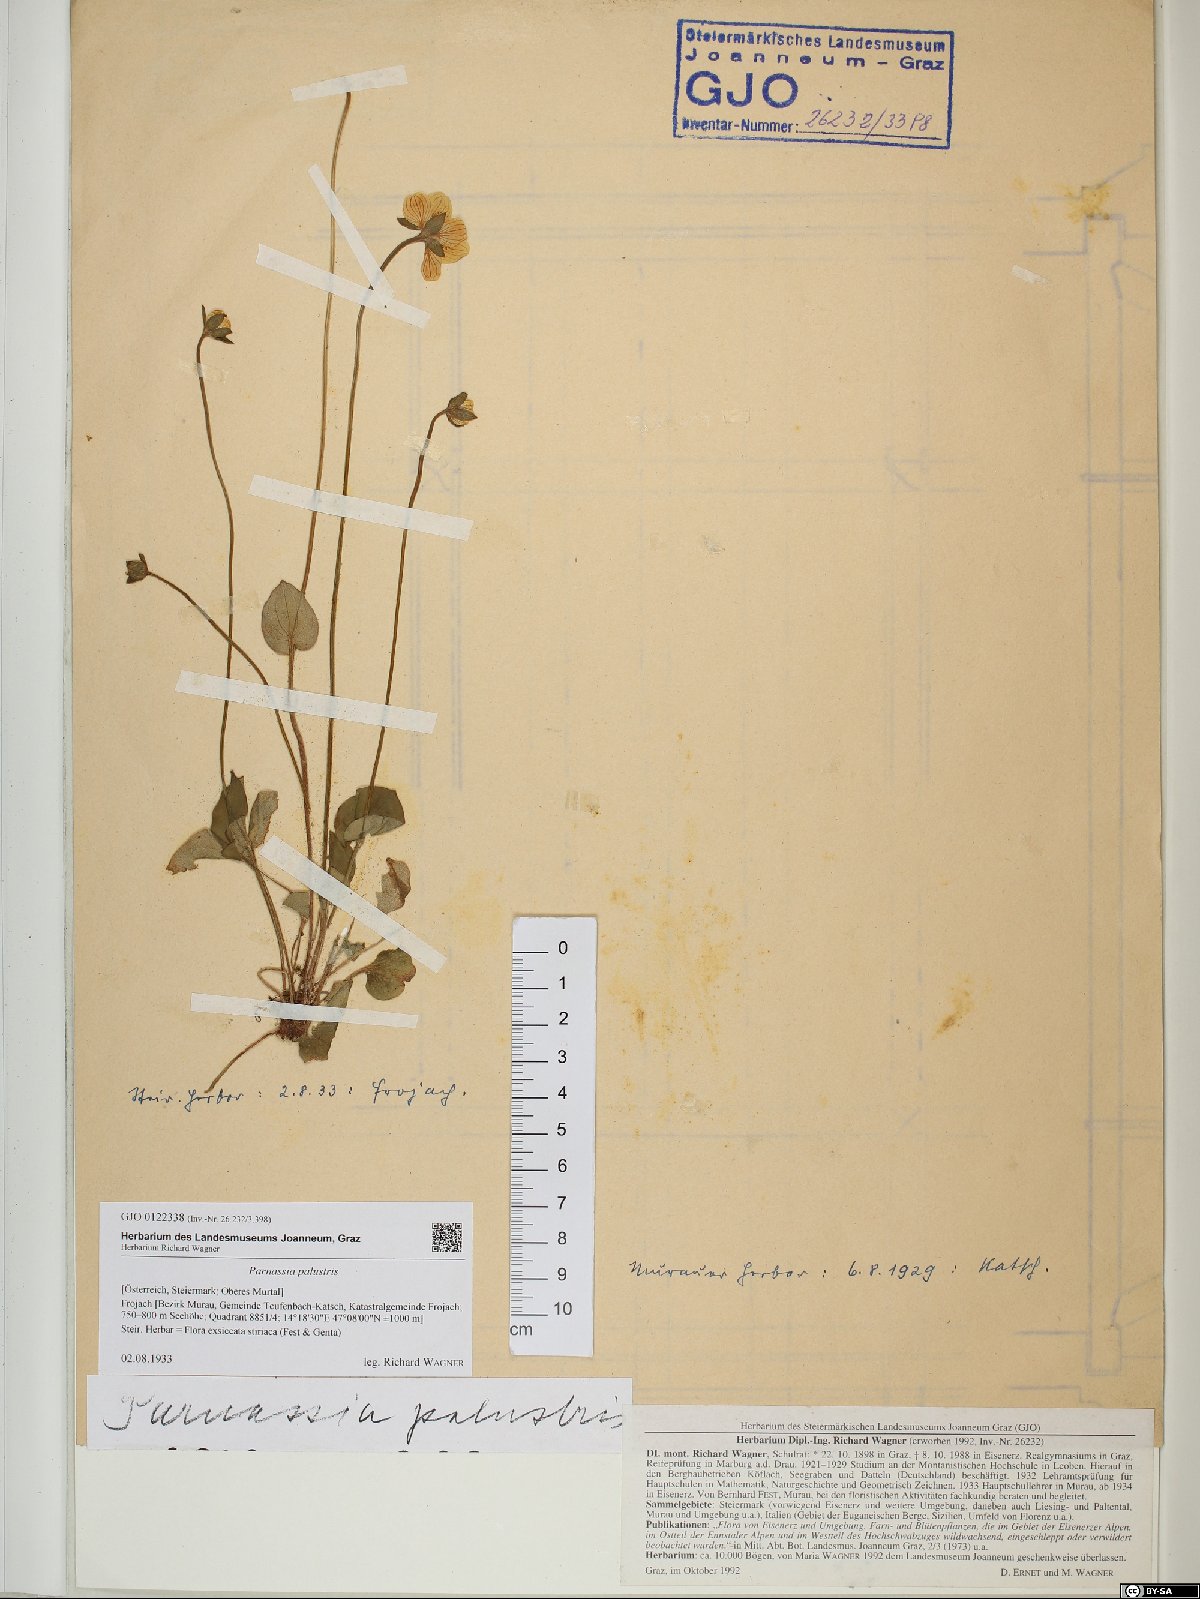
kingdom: Plantae
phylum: Tracheophyta
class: Magnoliopsida
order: Celastrales
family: Parnassiaceae
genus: Parnassia
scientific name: Parnassia palustris
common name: Grass-of-parnassus
